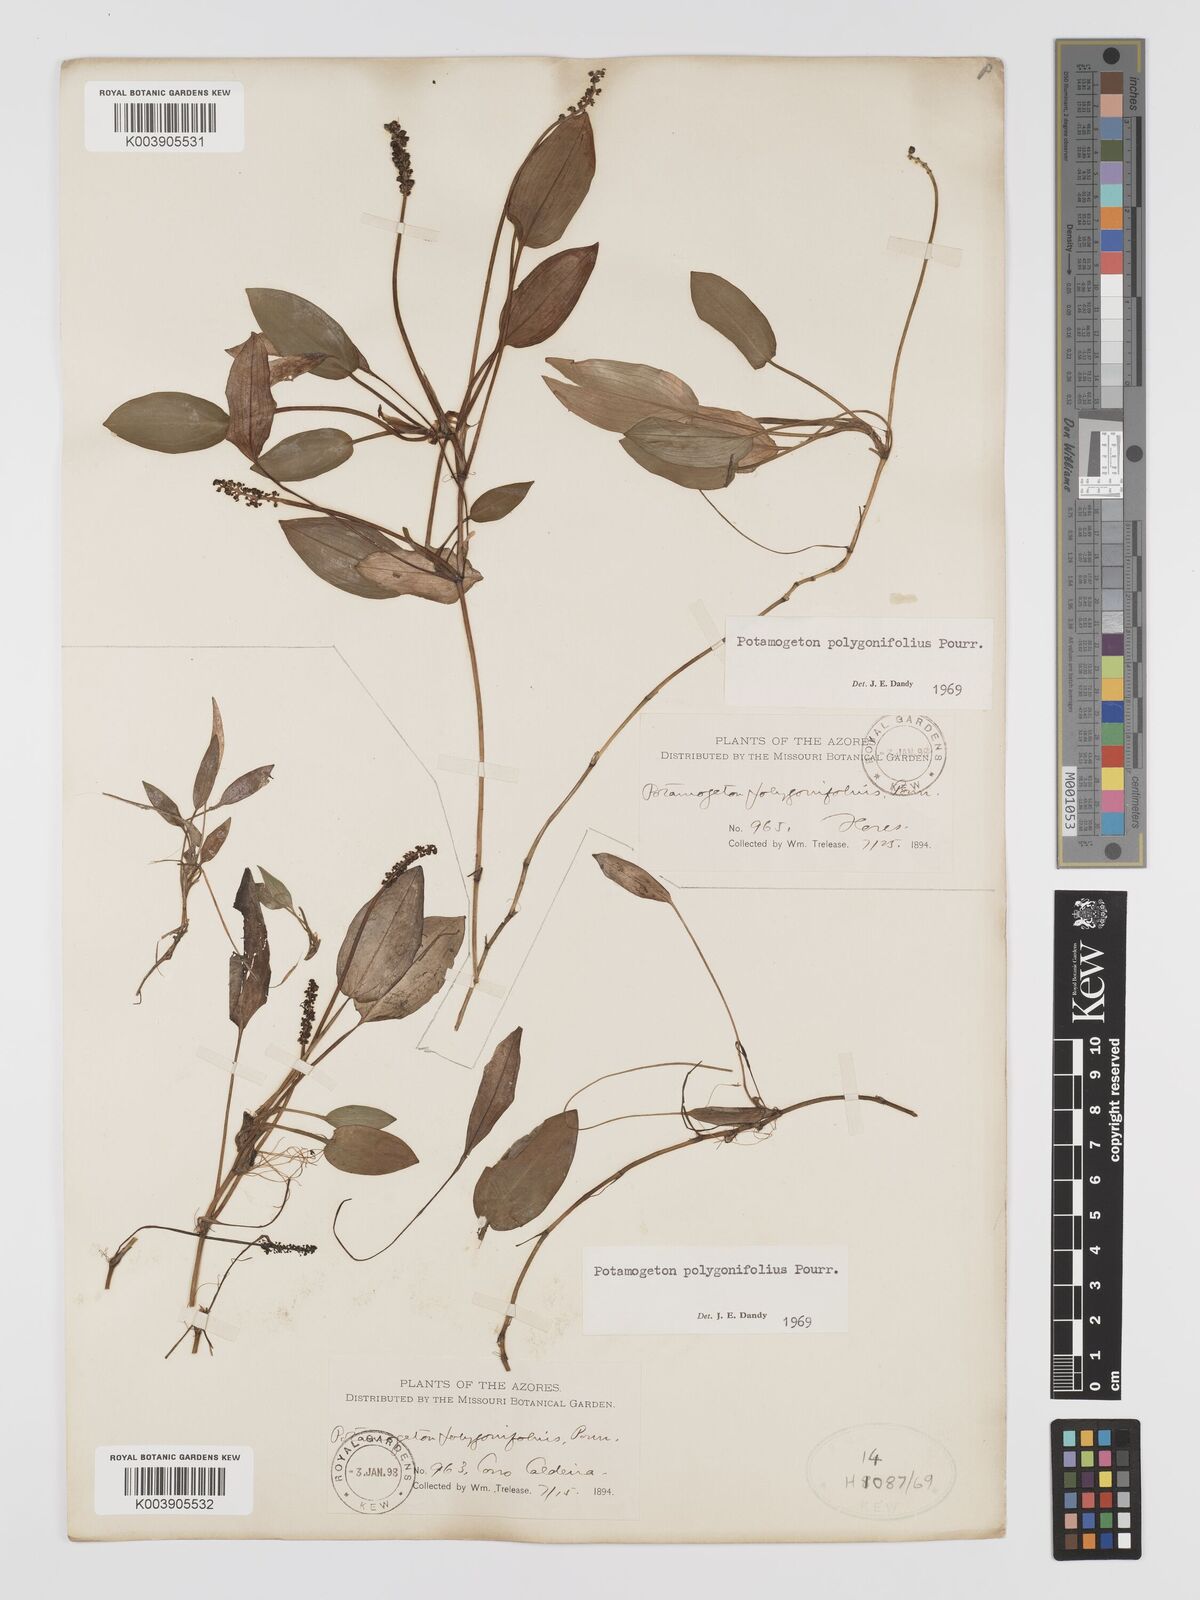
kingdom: Plantae
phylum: Tracheophyta
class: Liliopsida
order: Alismatales
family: Potamogetonaceae
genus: Potamogeton
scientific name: Potamogeton polygonifolius
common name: Bog pondweed
